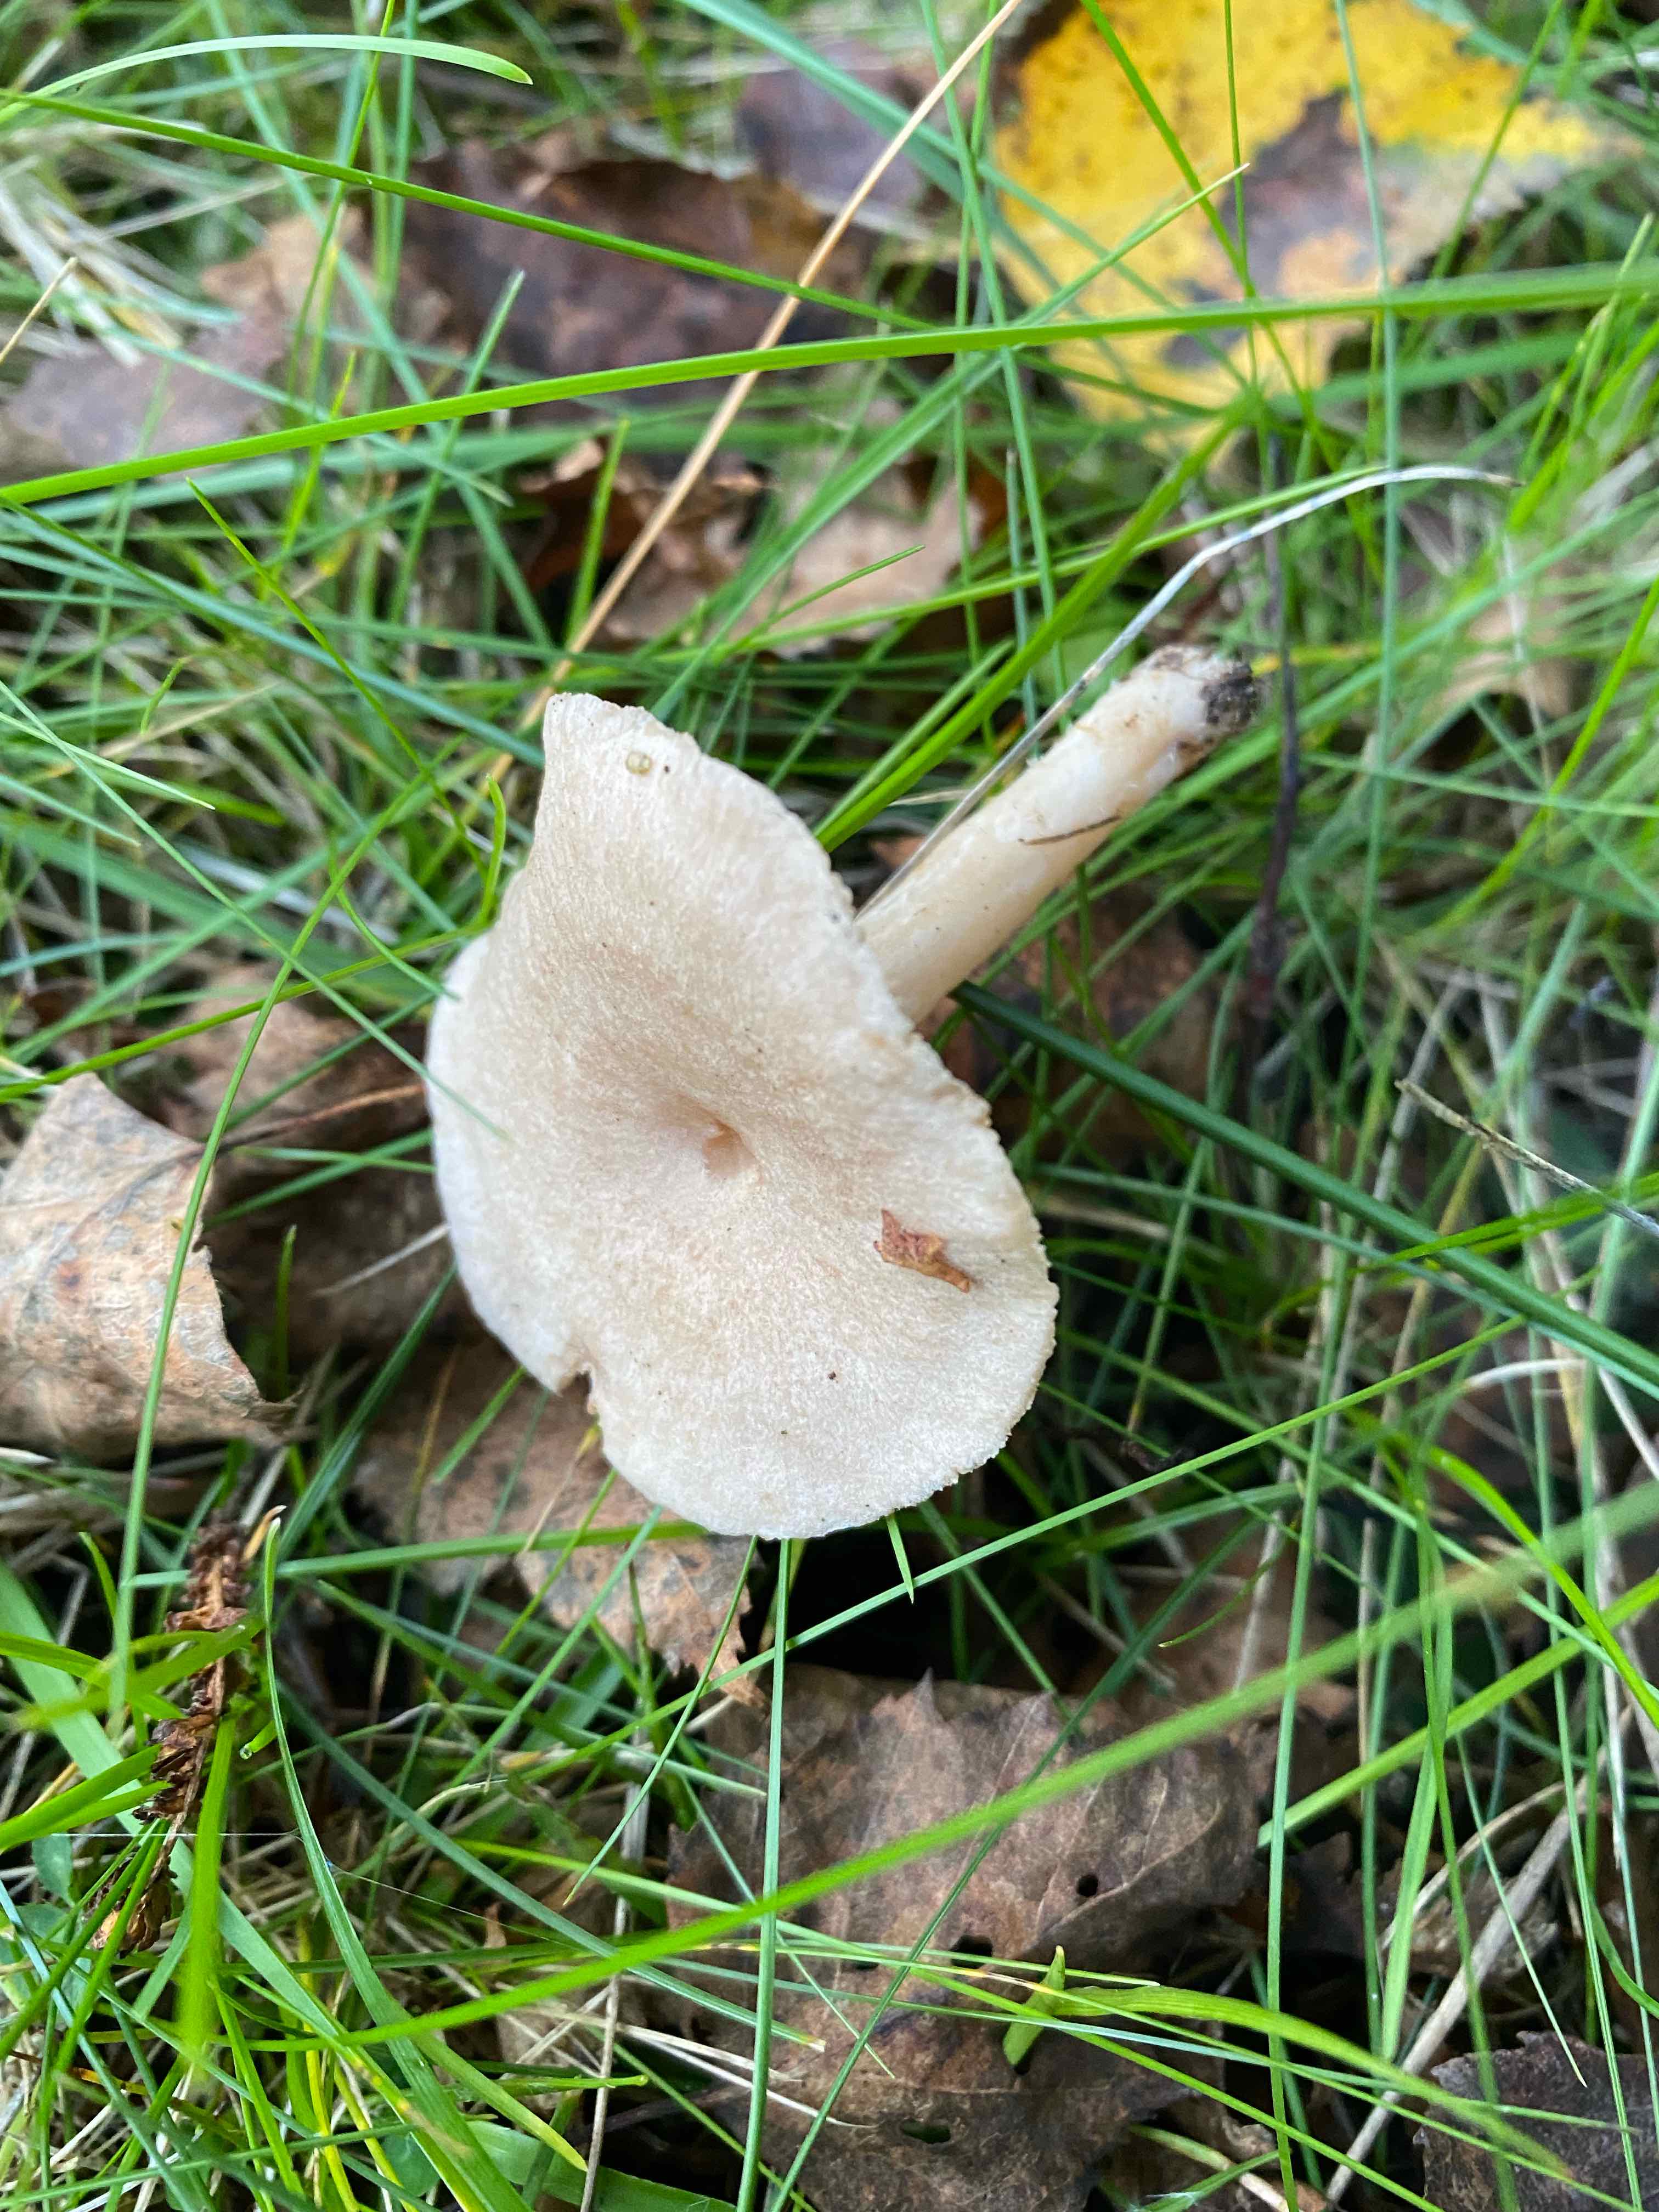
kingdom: Fungi
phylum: Basidiomycota
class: Agaricomycetes
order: Russulales
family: Russulaceae
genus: Lactarius
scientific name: Lactarius glyciosmus
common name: kokos-mælkehat
